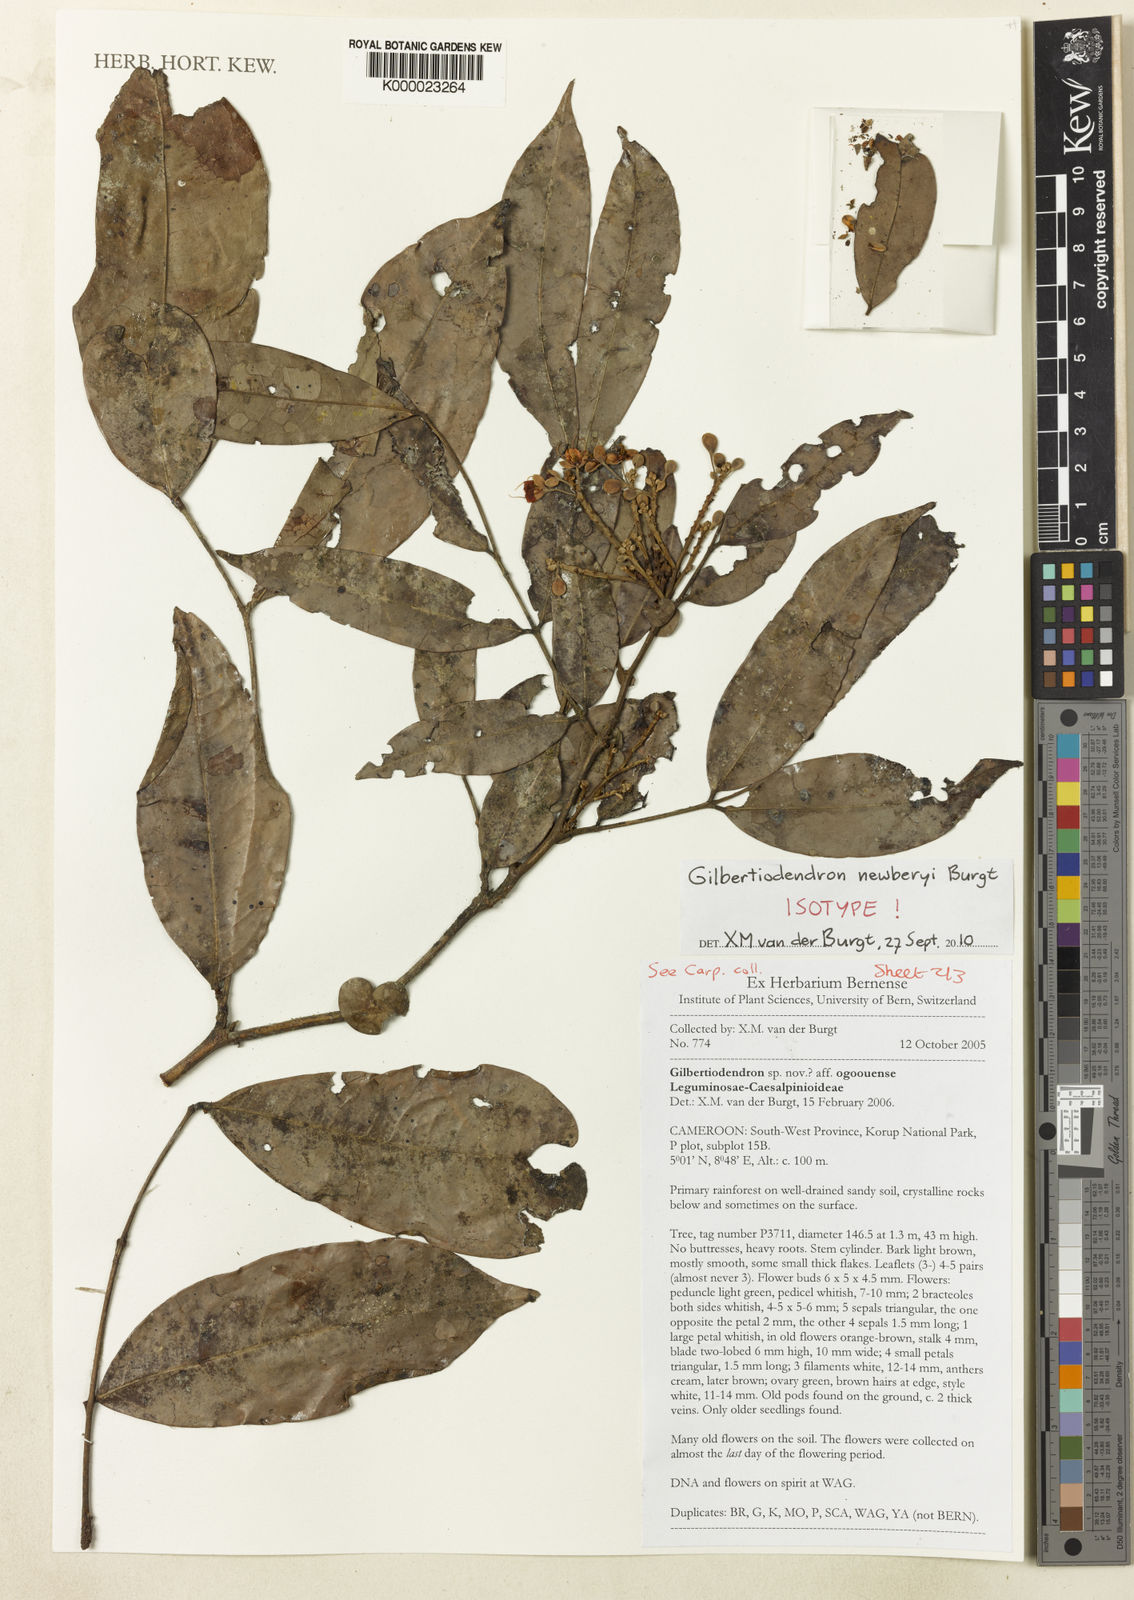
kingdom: Plantae
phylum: Tracheophyta
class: Magnoliopsida
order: Fabales
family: Fabaceae
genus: Gilbertiodendron
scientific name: Gilbertiodendron newberyi
